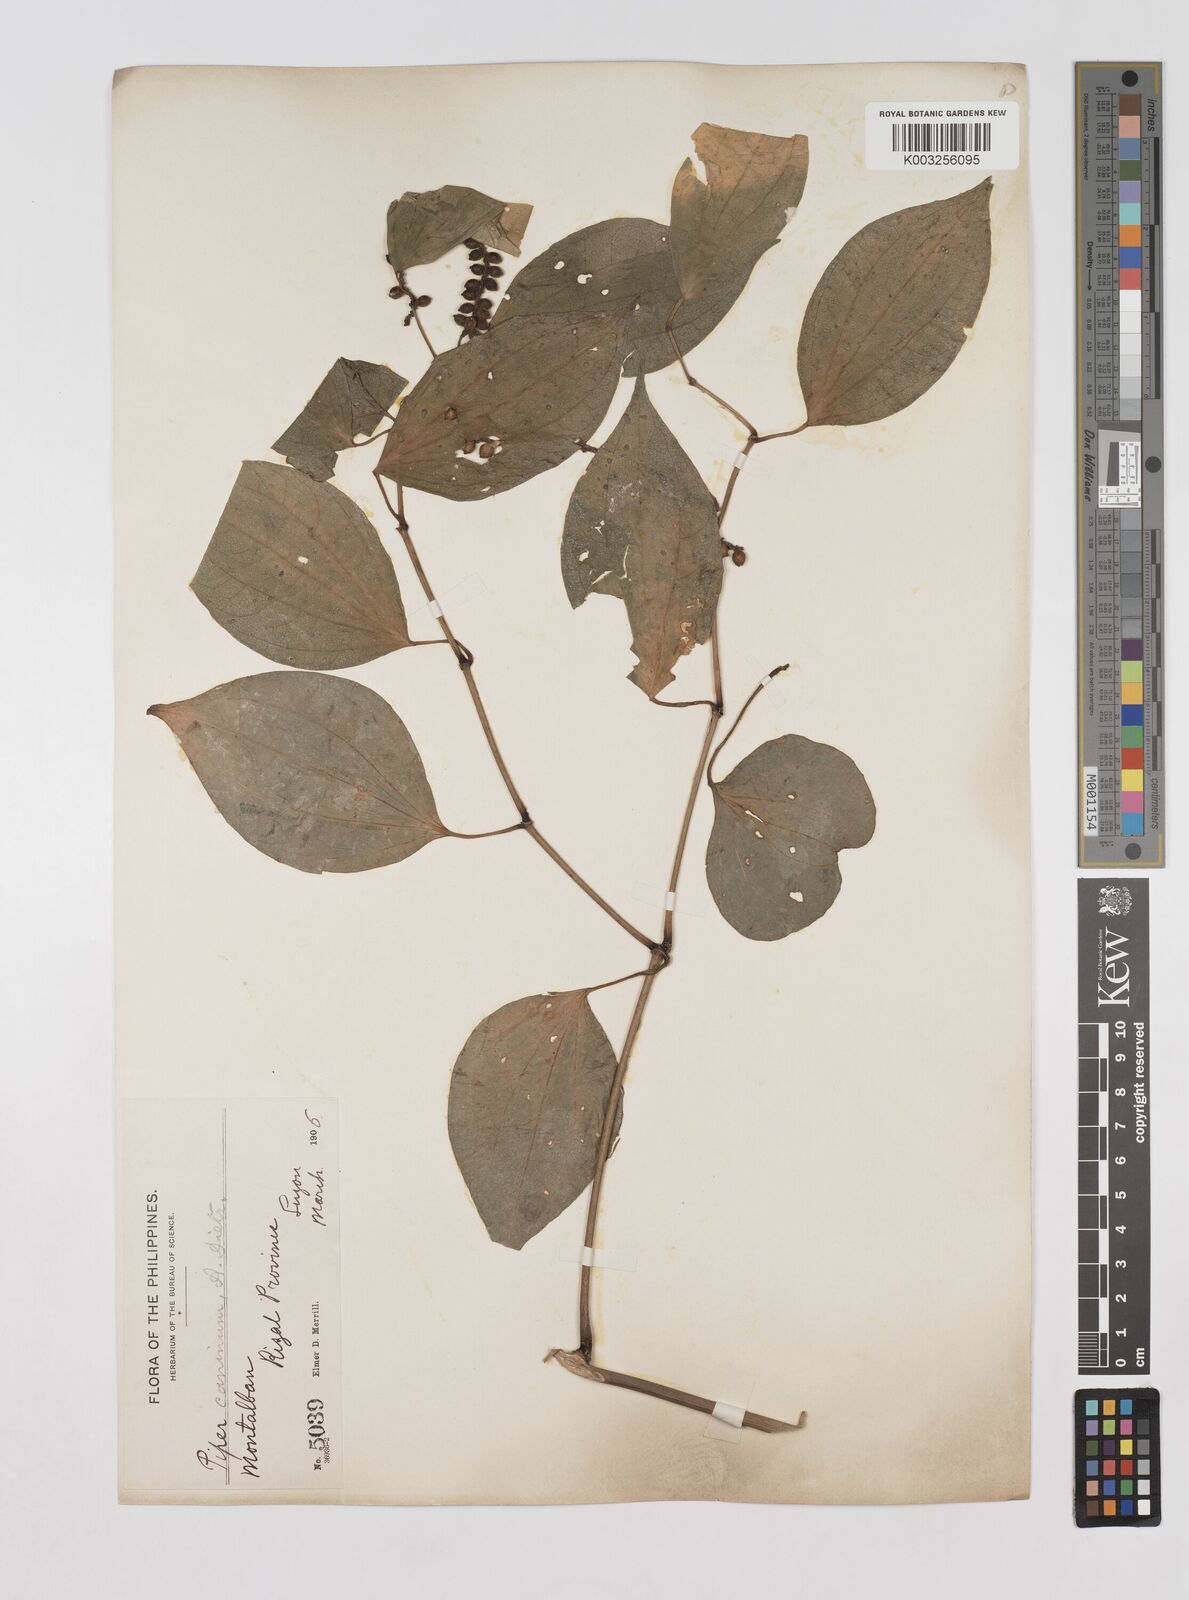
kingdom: Plantae
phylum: Tracheophyta
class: Magnoliopsida
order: Piperales
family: Piperaceae
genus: Piper
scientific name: Piper lanatum
